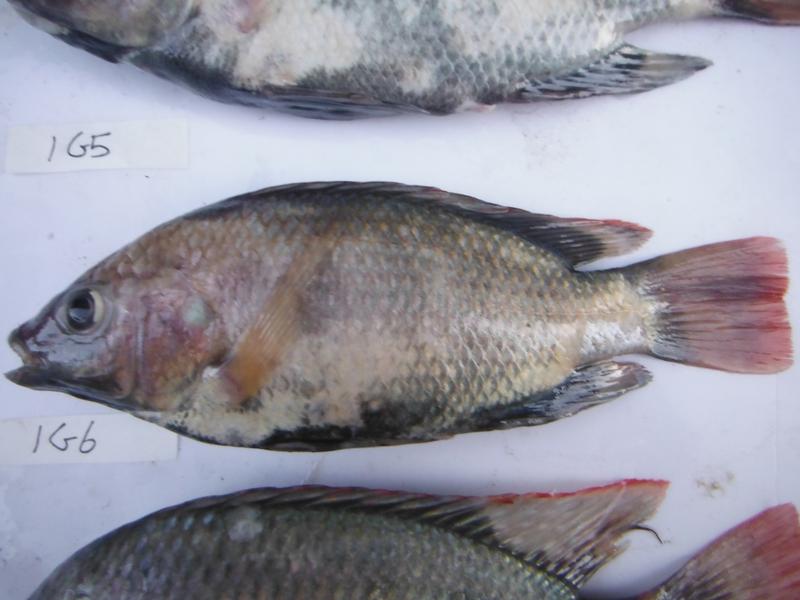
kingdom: Animalia
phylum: Chordata
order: Perciformes
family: Cichlidae
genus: Oreochromis
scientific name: Oreochromis rukwaensis
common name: Lake rukwa tilapia
